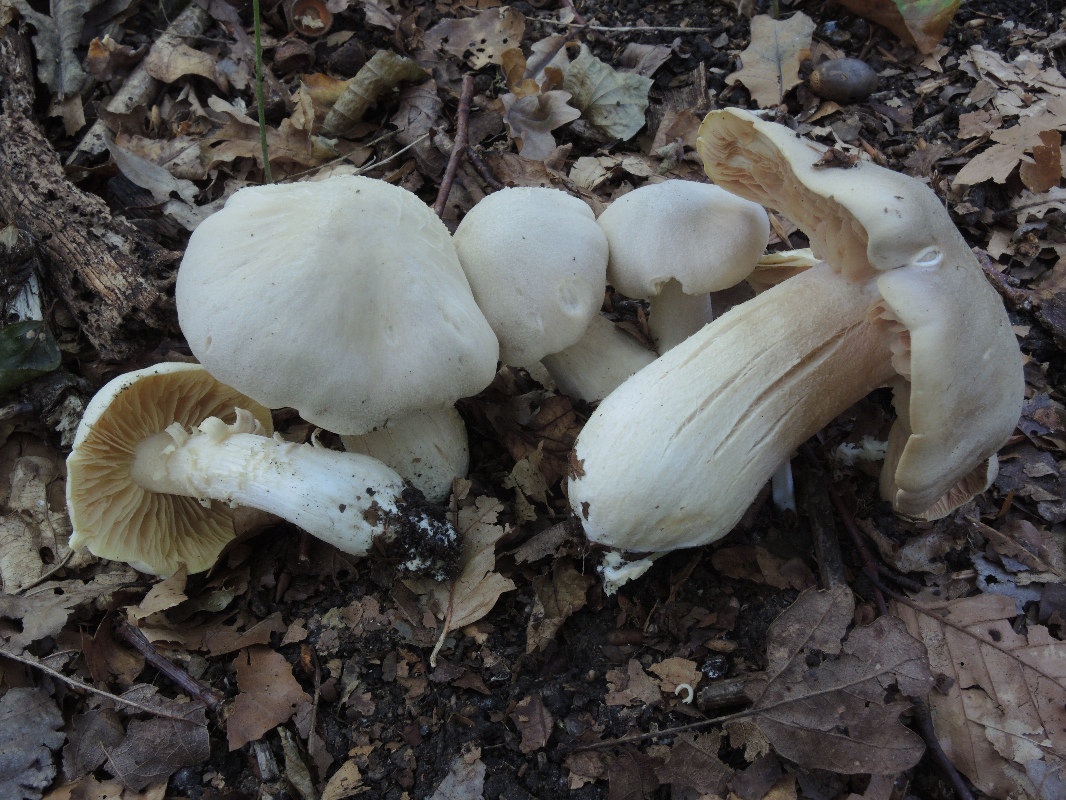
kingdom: Fungi
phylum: Basidiomycota
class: Agaricomycetes
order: Agaricales
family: Entolomataceae
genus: Entoloma
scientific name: Entoloma sinuatum
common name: giftig rødblad
